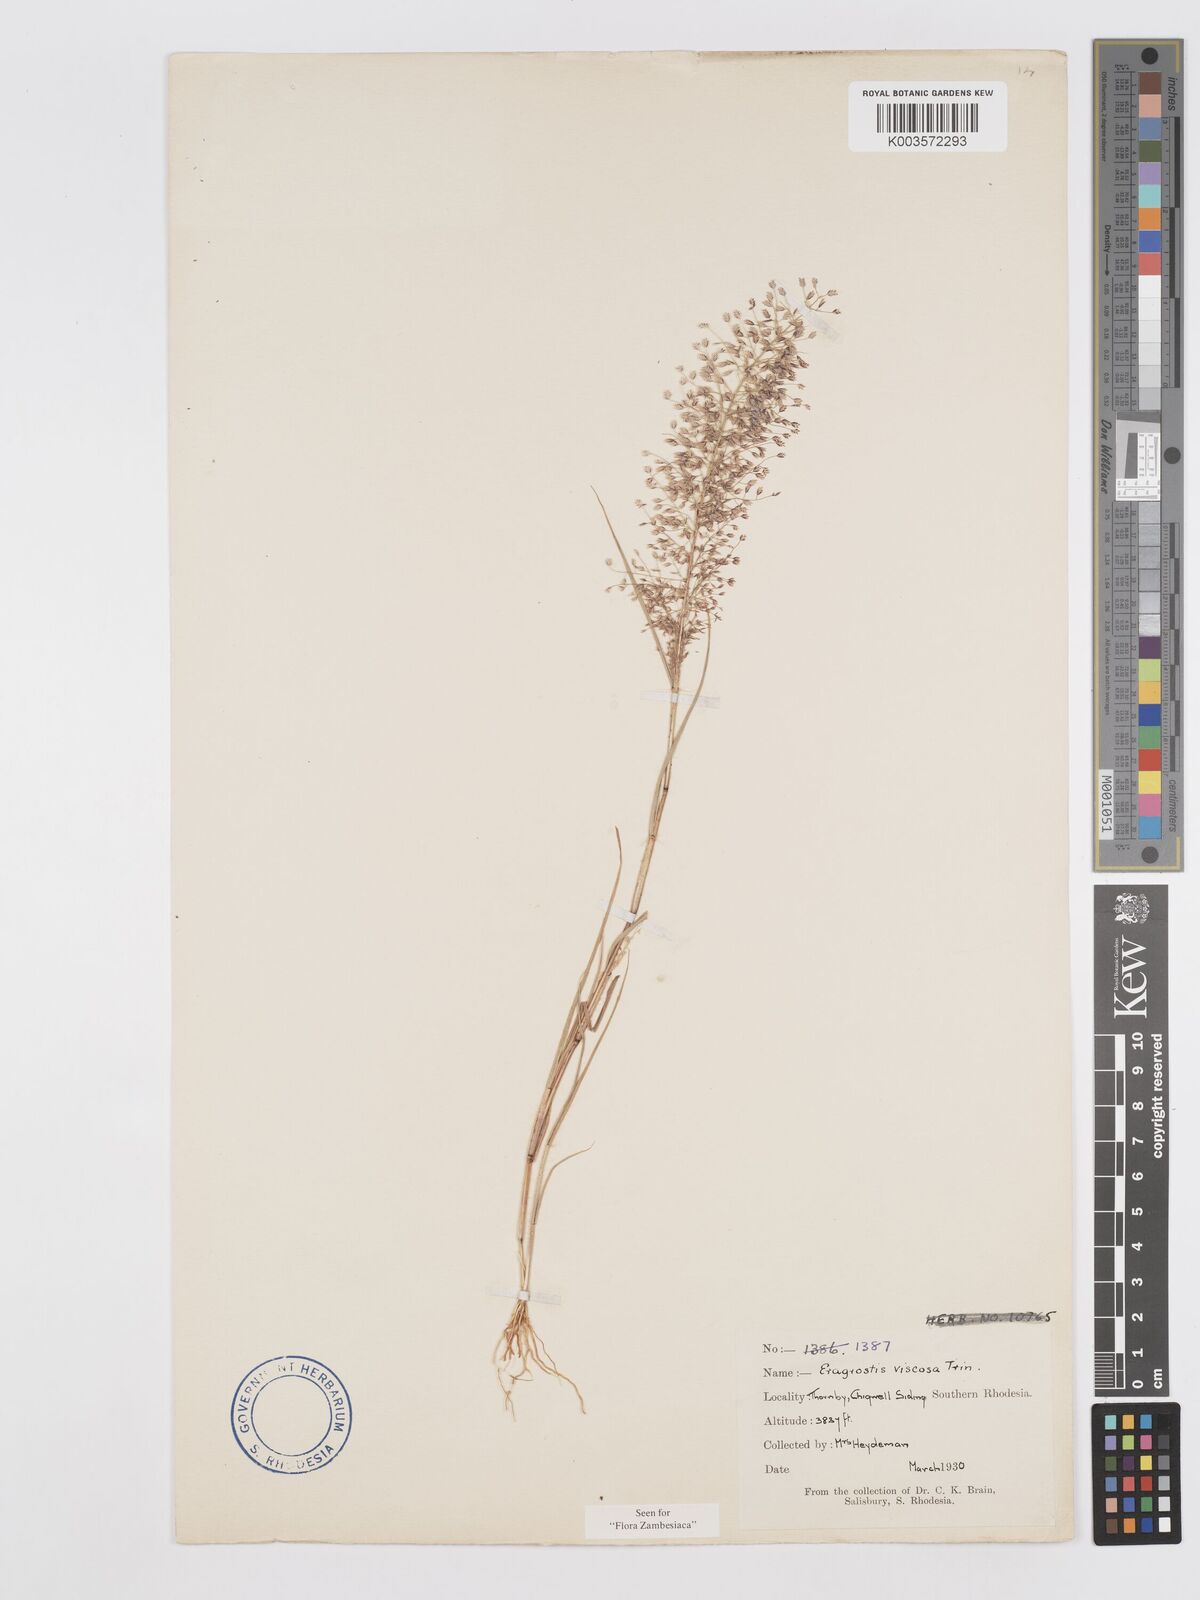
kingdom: Plantae
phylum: Tracheophyta
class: Liliopsida
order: Poales
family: Poaceae
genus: Eragrostis
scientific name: Eragrostis
